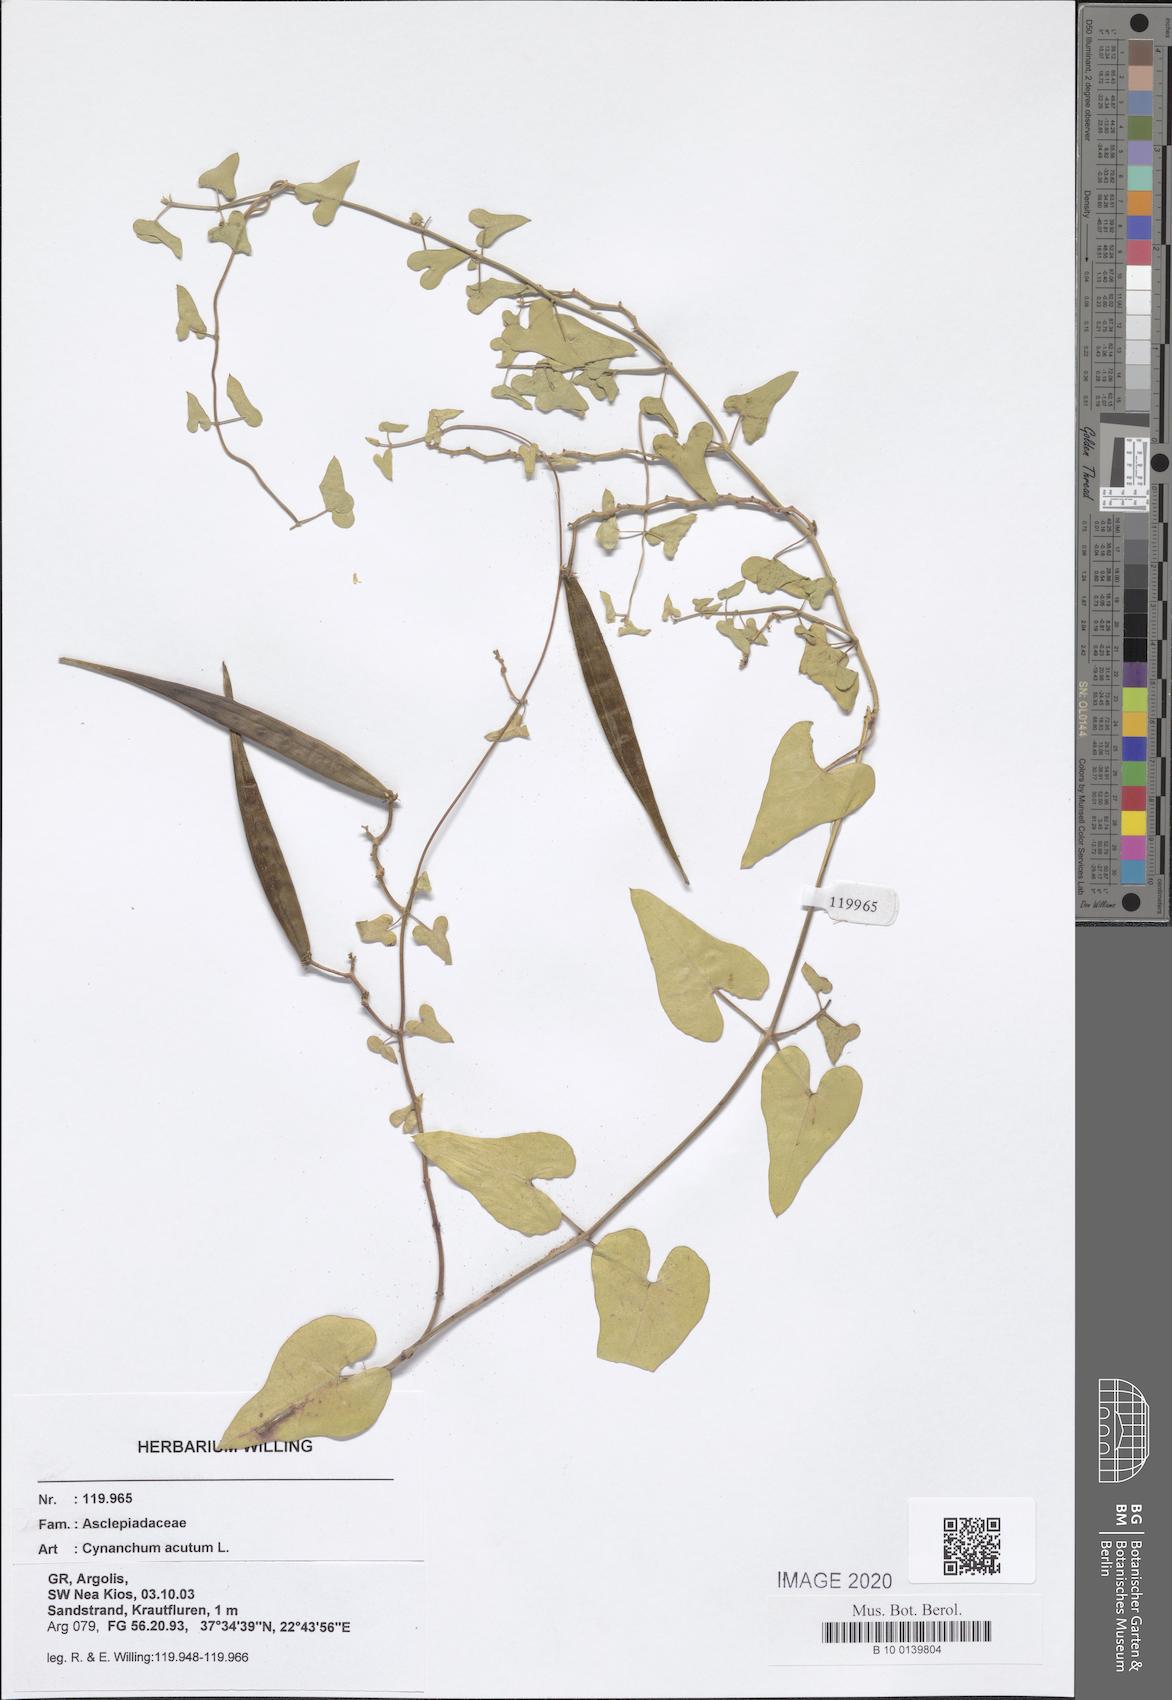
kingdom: Plantae
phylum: Tracheophyta
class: Magnoliopsida
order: Gentianales
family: Apocynaceae
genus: Cynanchum
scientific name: Cynanchum acutum
